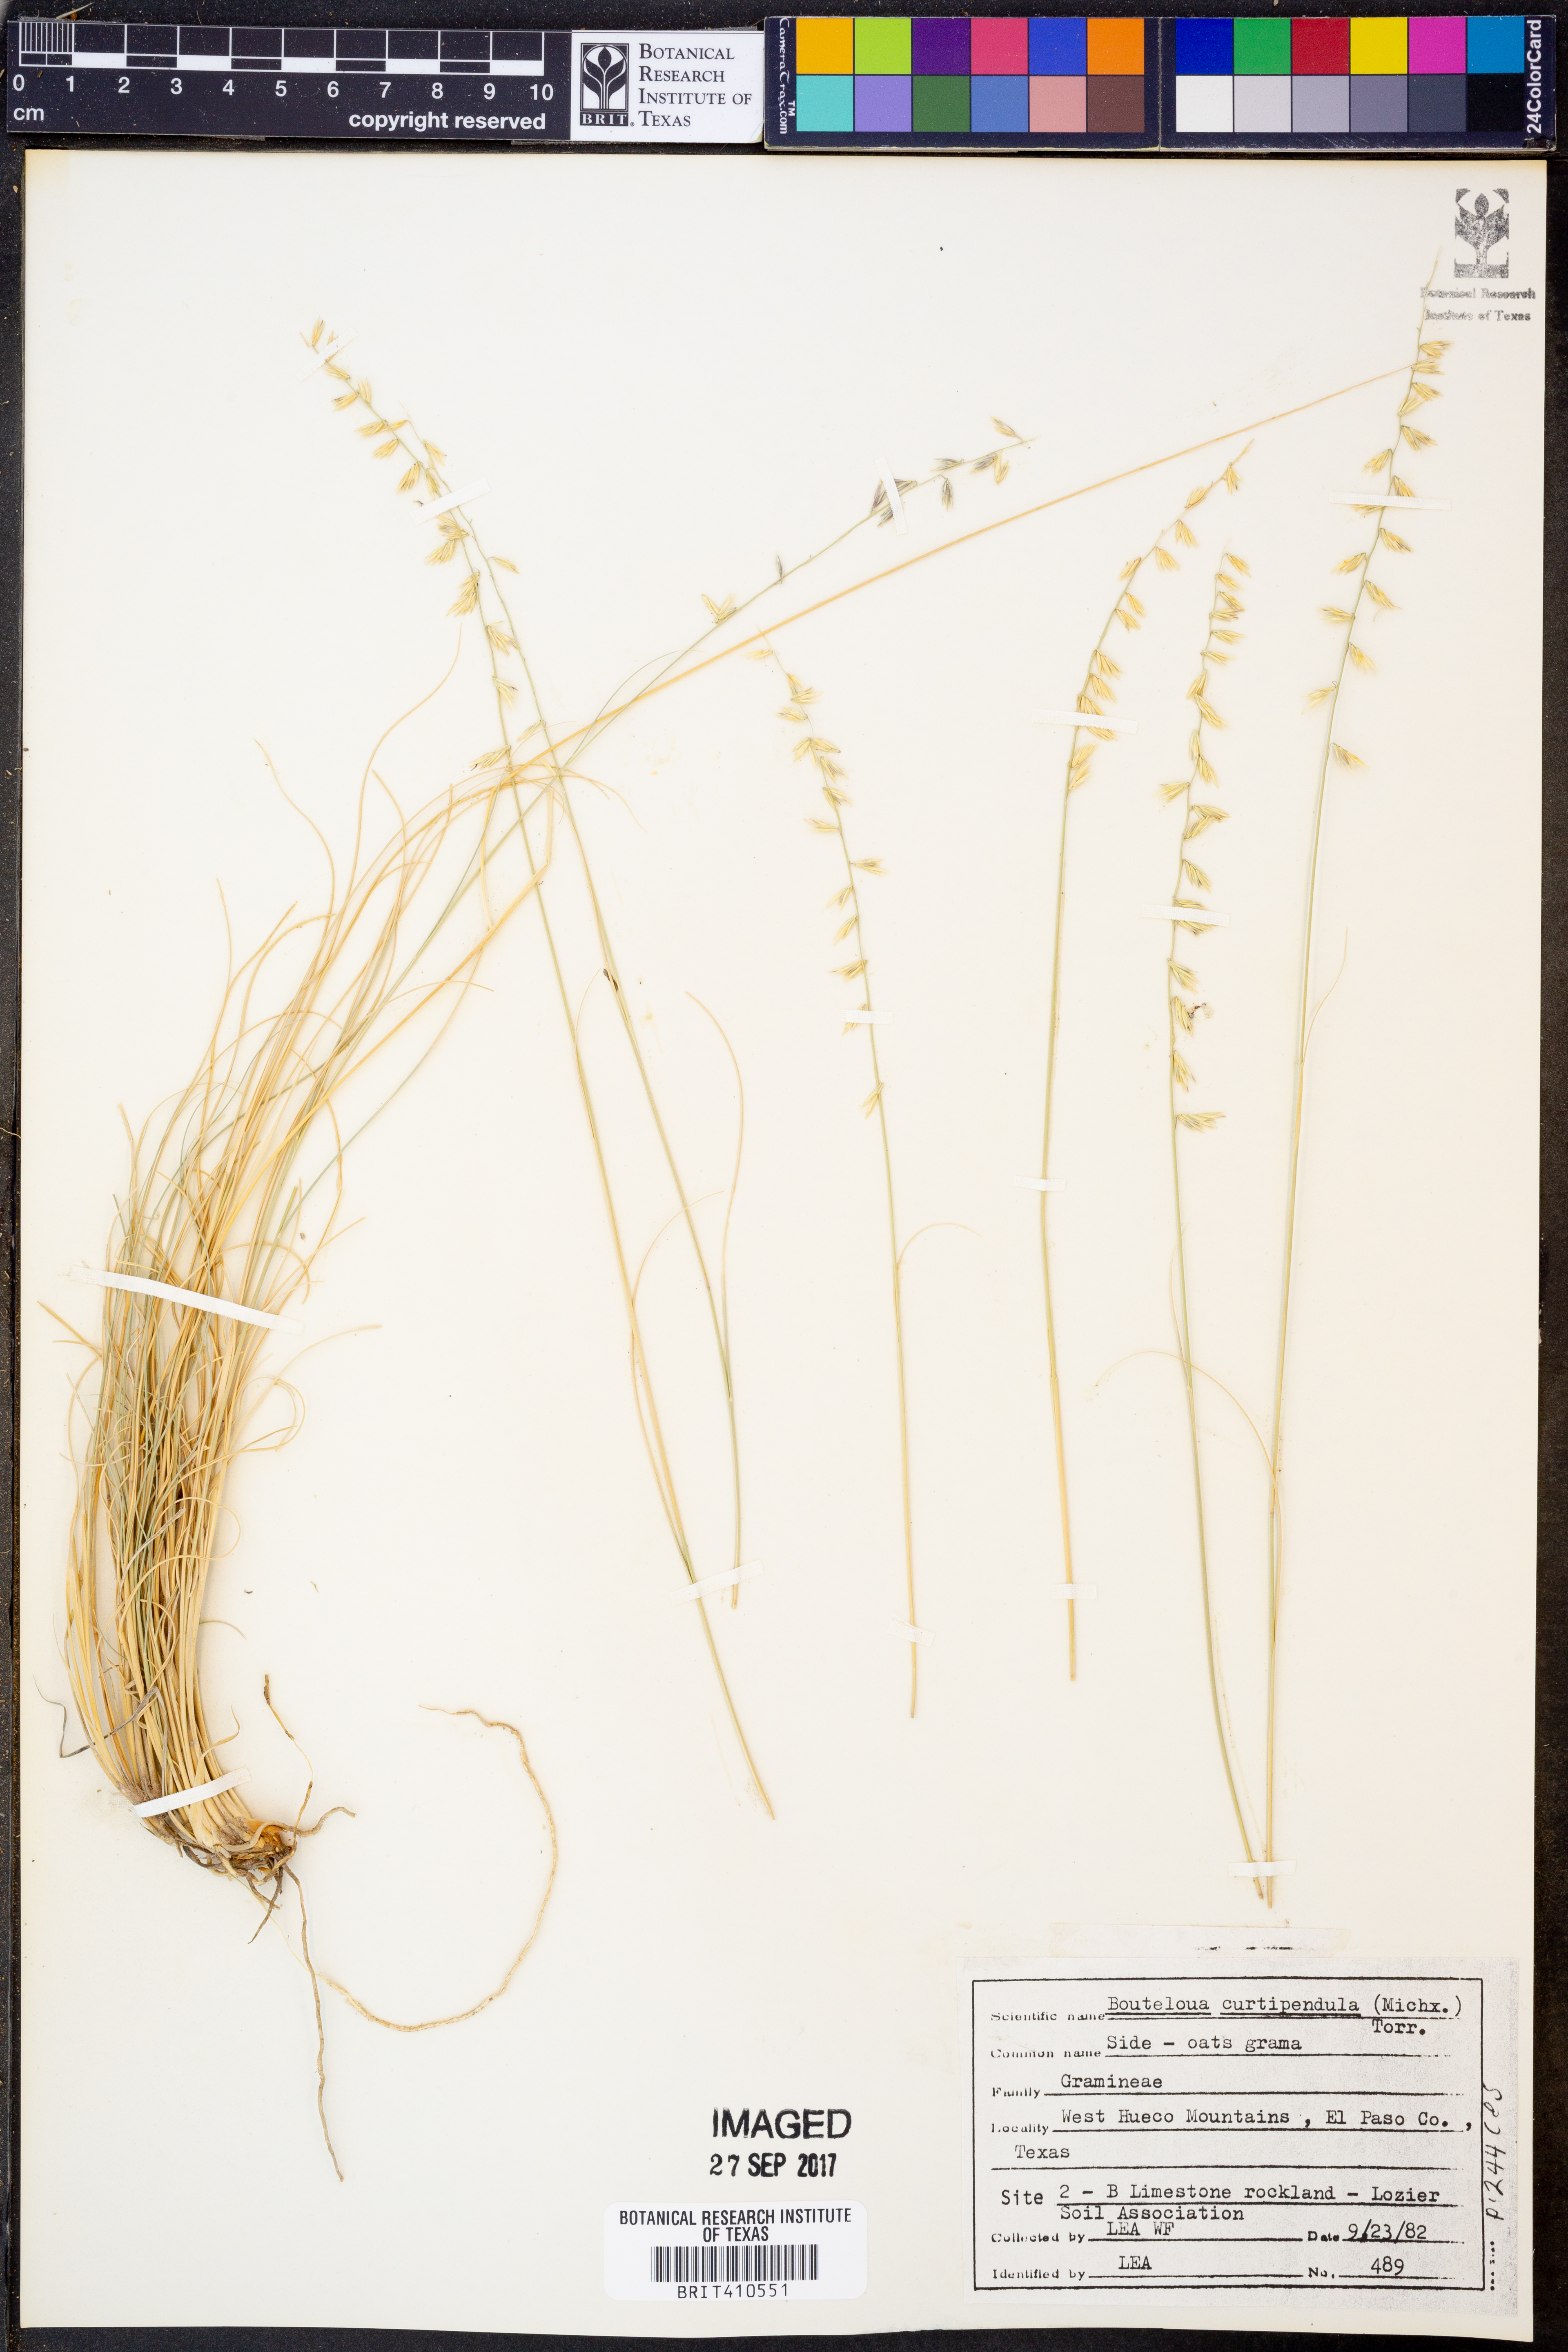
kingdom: Plantae
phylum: Tracheophyta
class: Liliopsida
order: Poales
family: Poaceae
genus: Bouteloua
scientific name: Bouteloua curtipendula
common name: Side-oats grama
